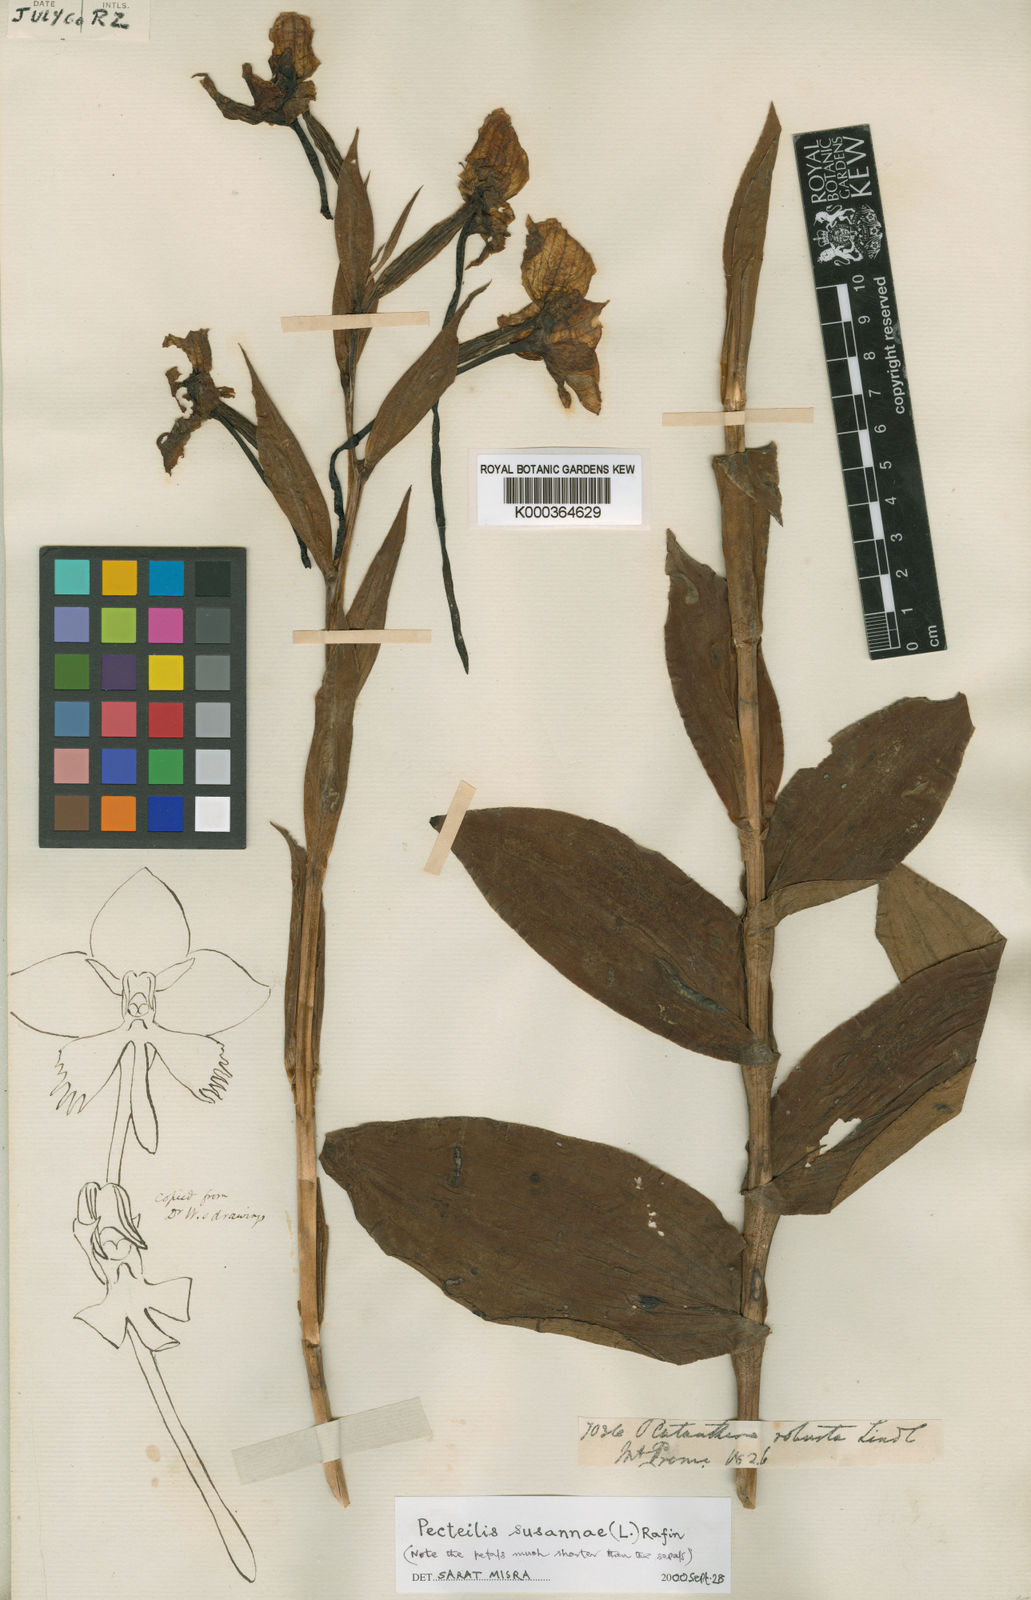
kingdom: Plantae
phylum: Tracheophyta
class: Liliopsida
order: Asparagales
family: Orchidaceae
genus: Pecteilis
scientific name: Pecteilis susannae
